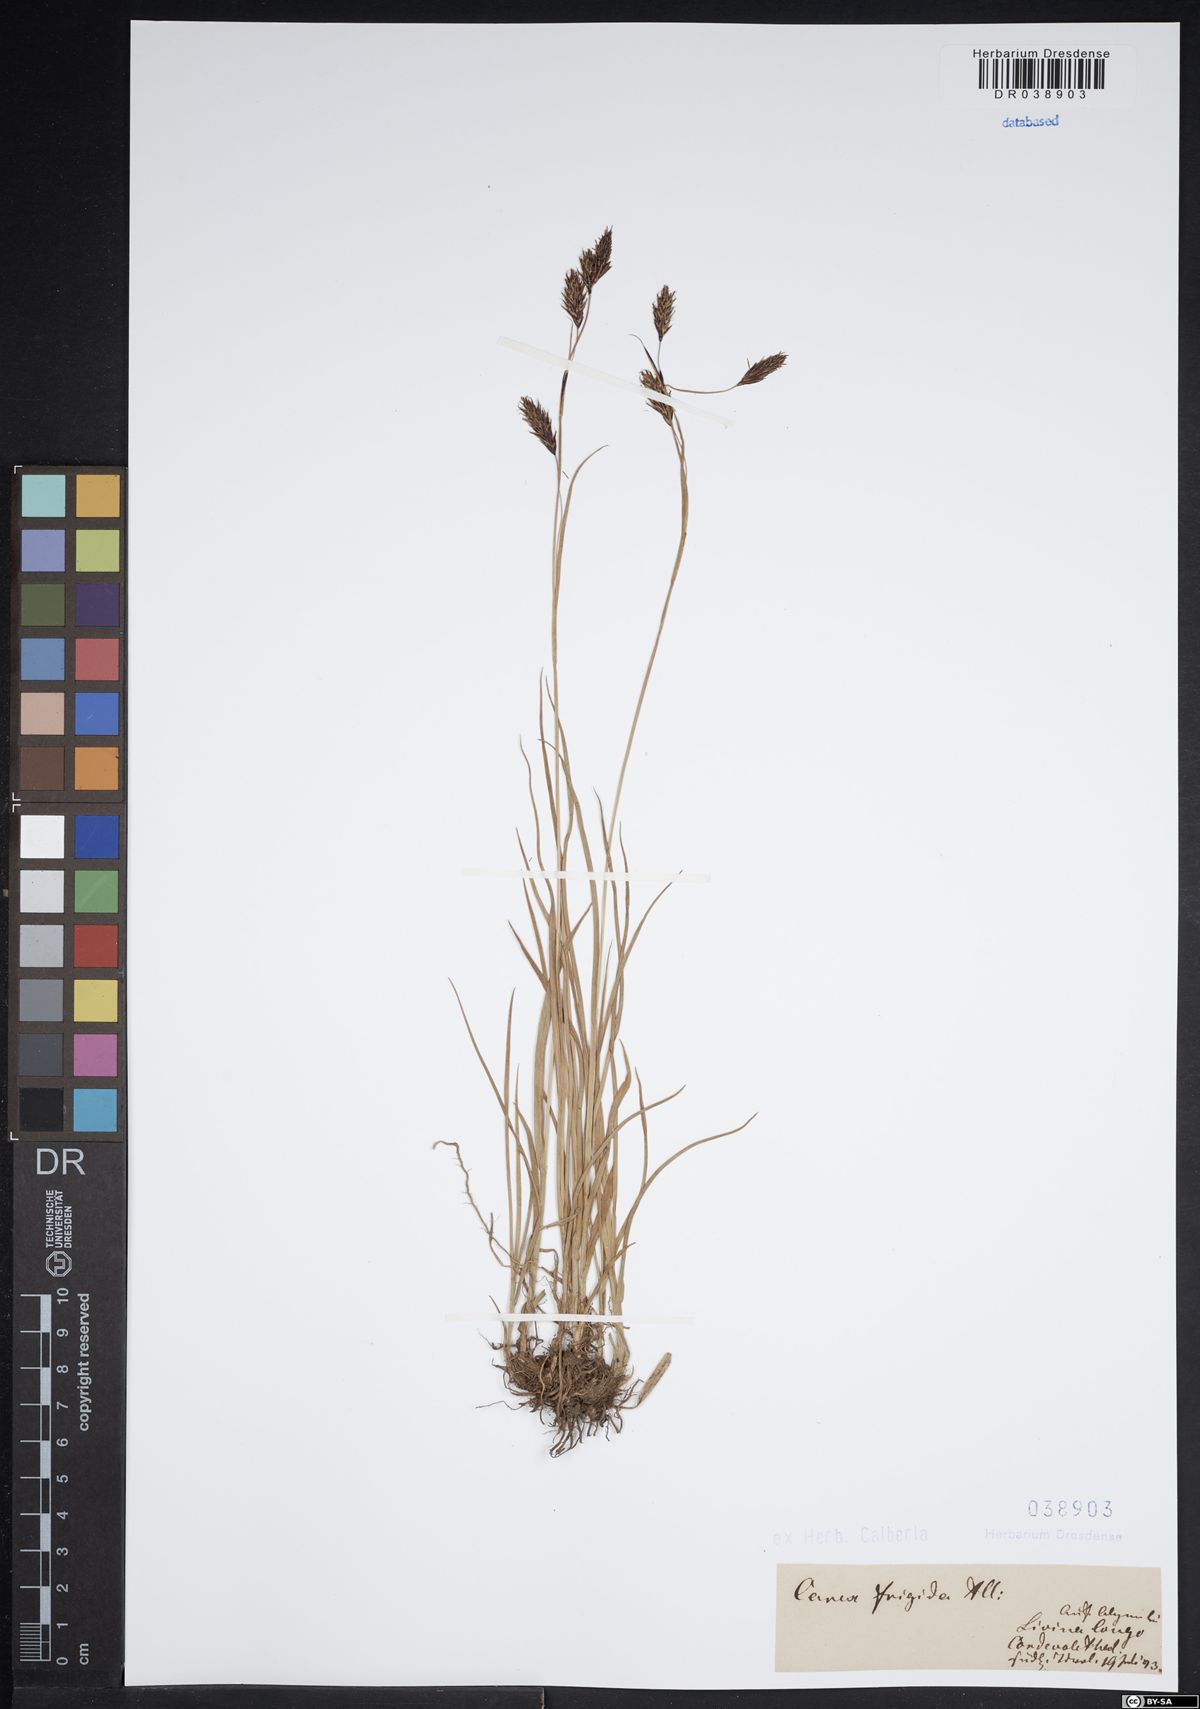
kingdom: Plantae
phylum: Tracheophyta
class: Liliopsida
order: Poales
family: Cyperaceae
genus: Carex
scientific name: Carex frigida
